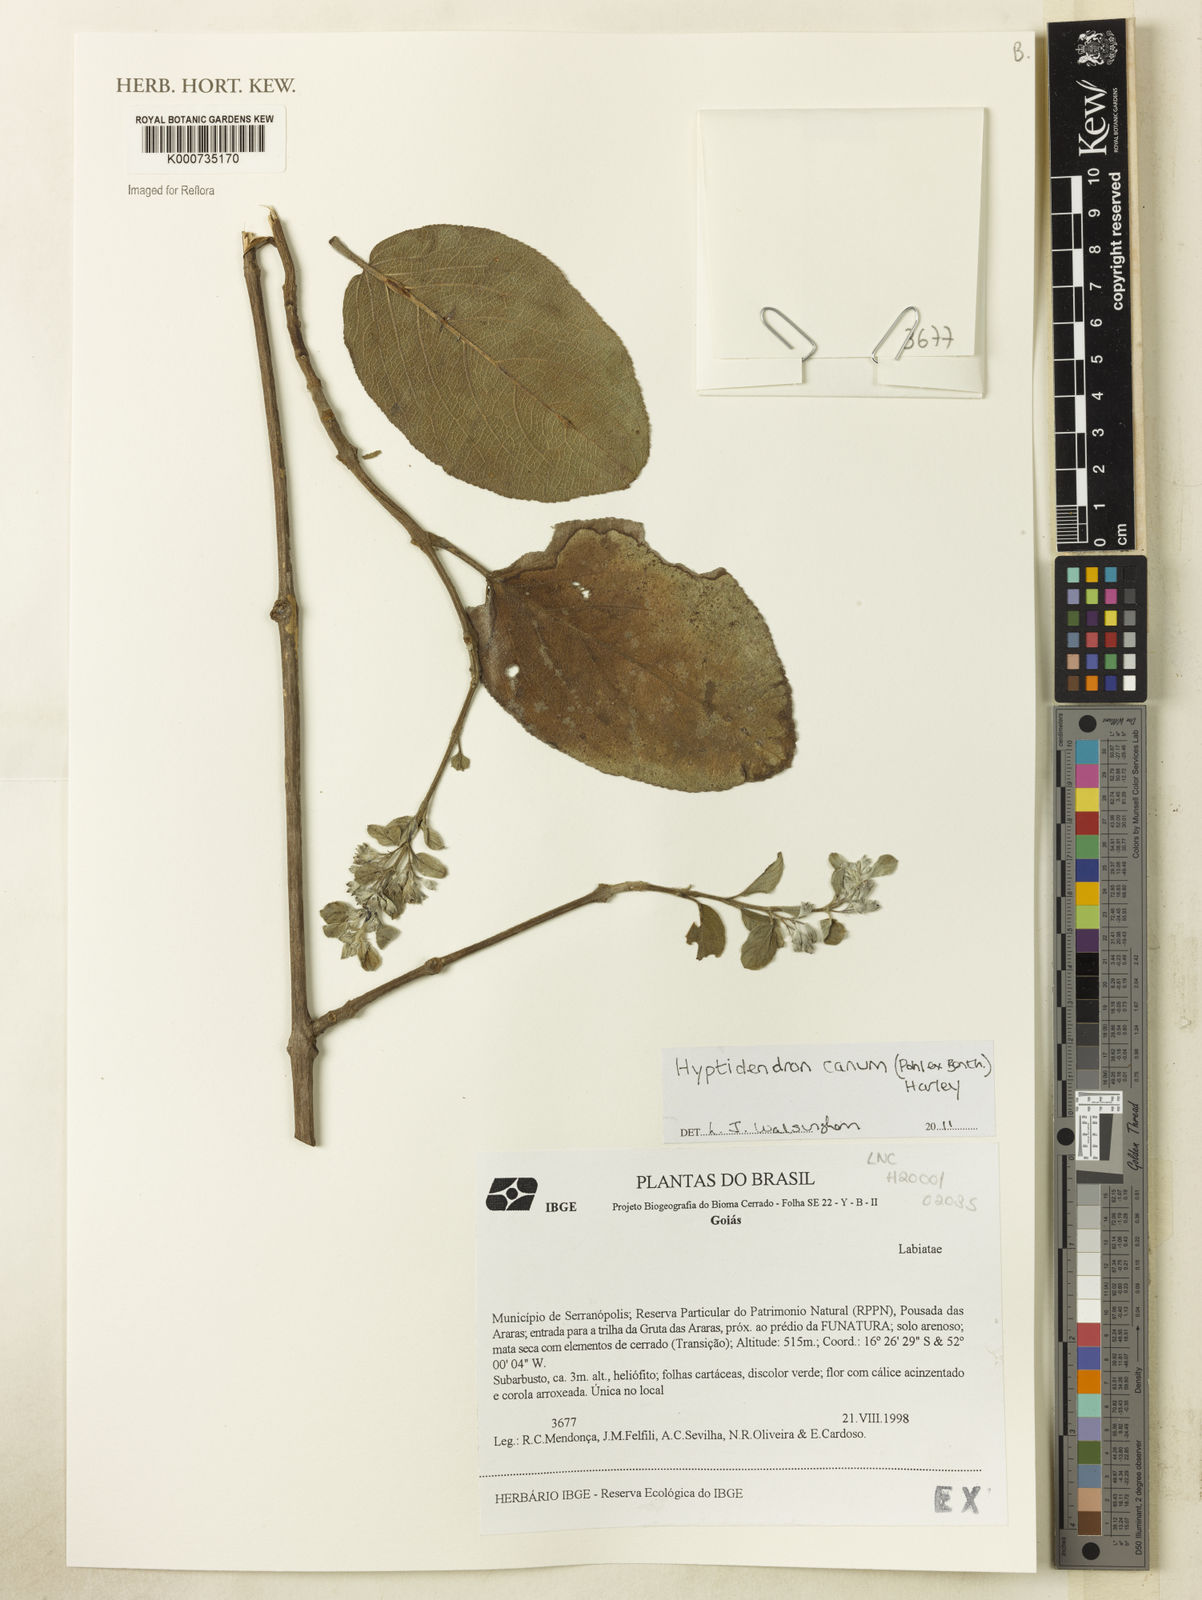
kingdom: Plantae
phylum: Tracheophyta
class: Magnoliopsida
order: Lamiales
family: Lamiaceae
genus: Hyptidendron
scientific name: Hyptidendron canum
